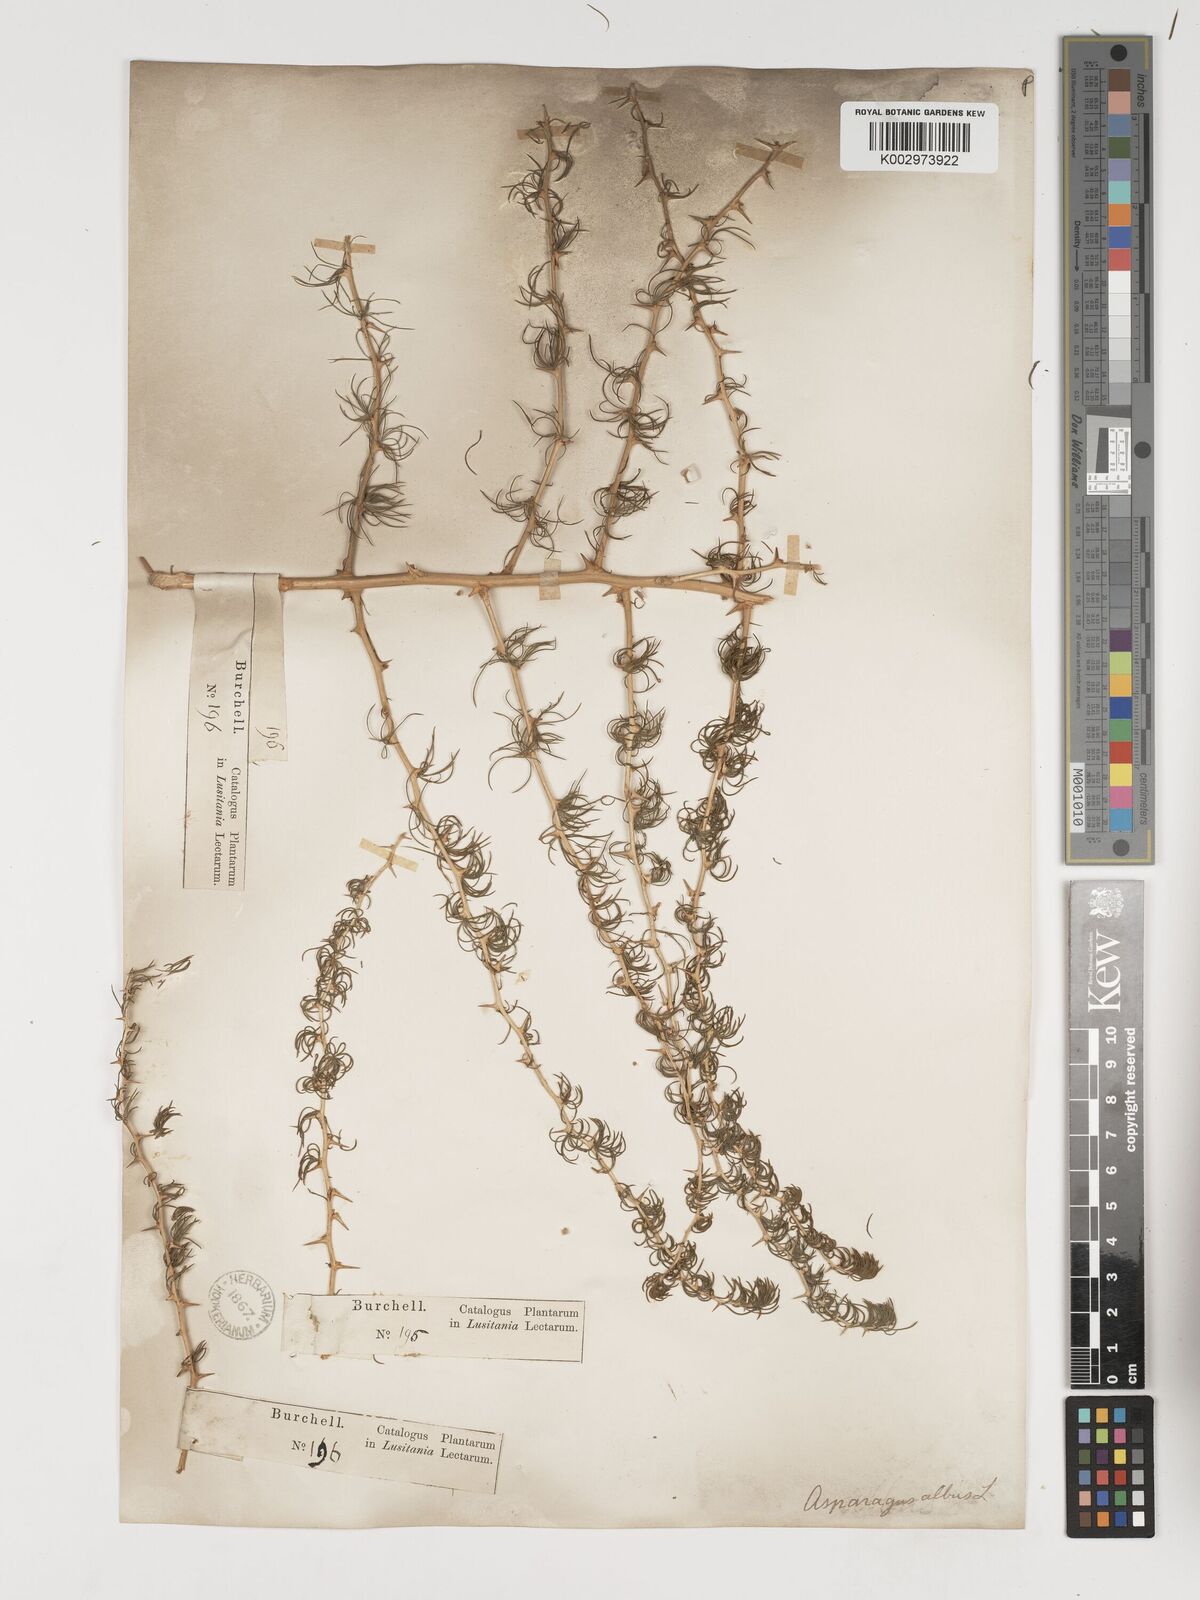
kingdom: Plantae
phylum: Tracheophyta
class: Liliopsida
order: Asparagales
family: Asparagaceae
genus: Asparagus
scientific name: Asparagus albus
